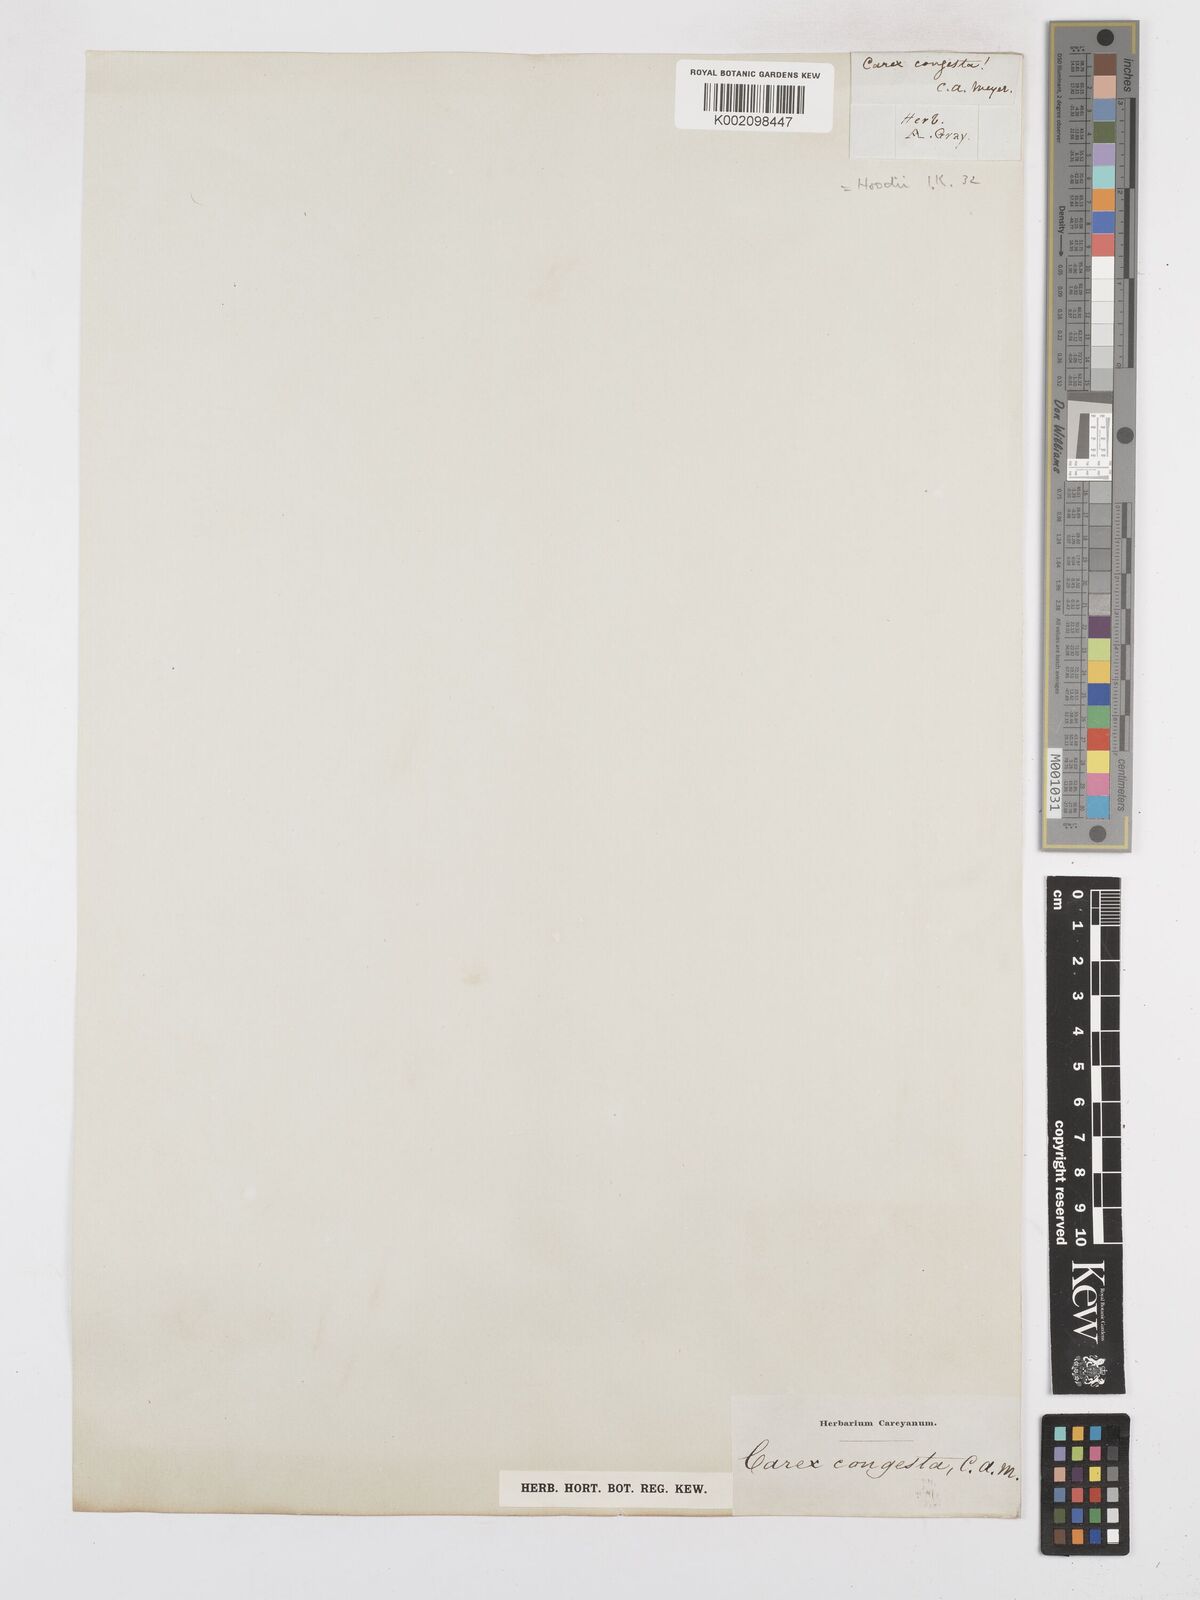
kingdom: Plantae
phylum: Tracheophyta
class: Liliopsida
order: Poales
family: Cyperaceae
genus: Carex
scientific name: Carex hoodii
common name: Hood's sedge
